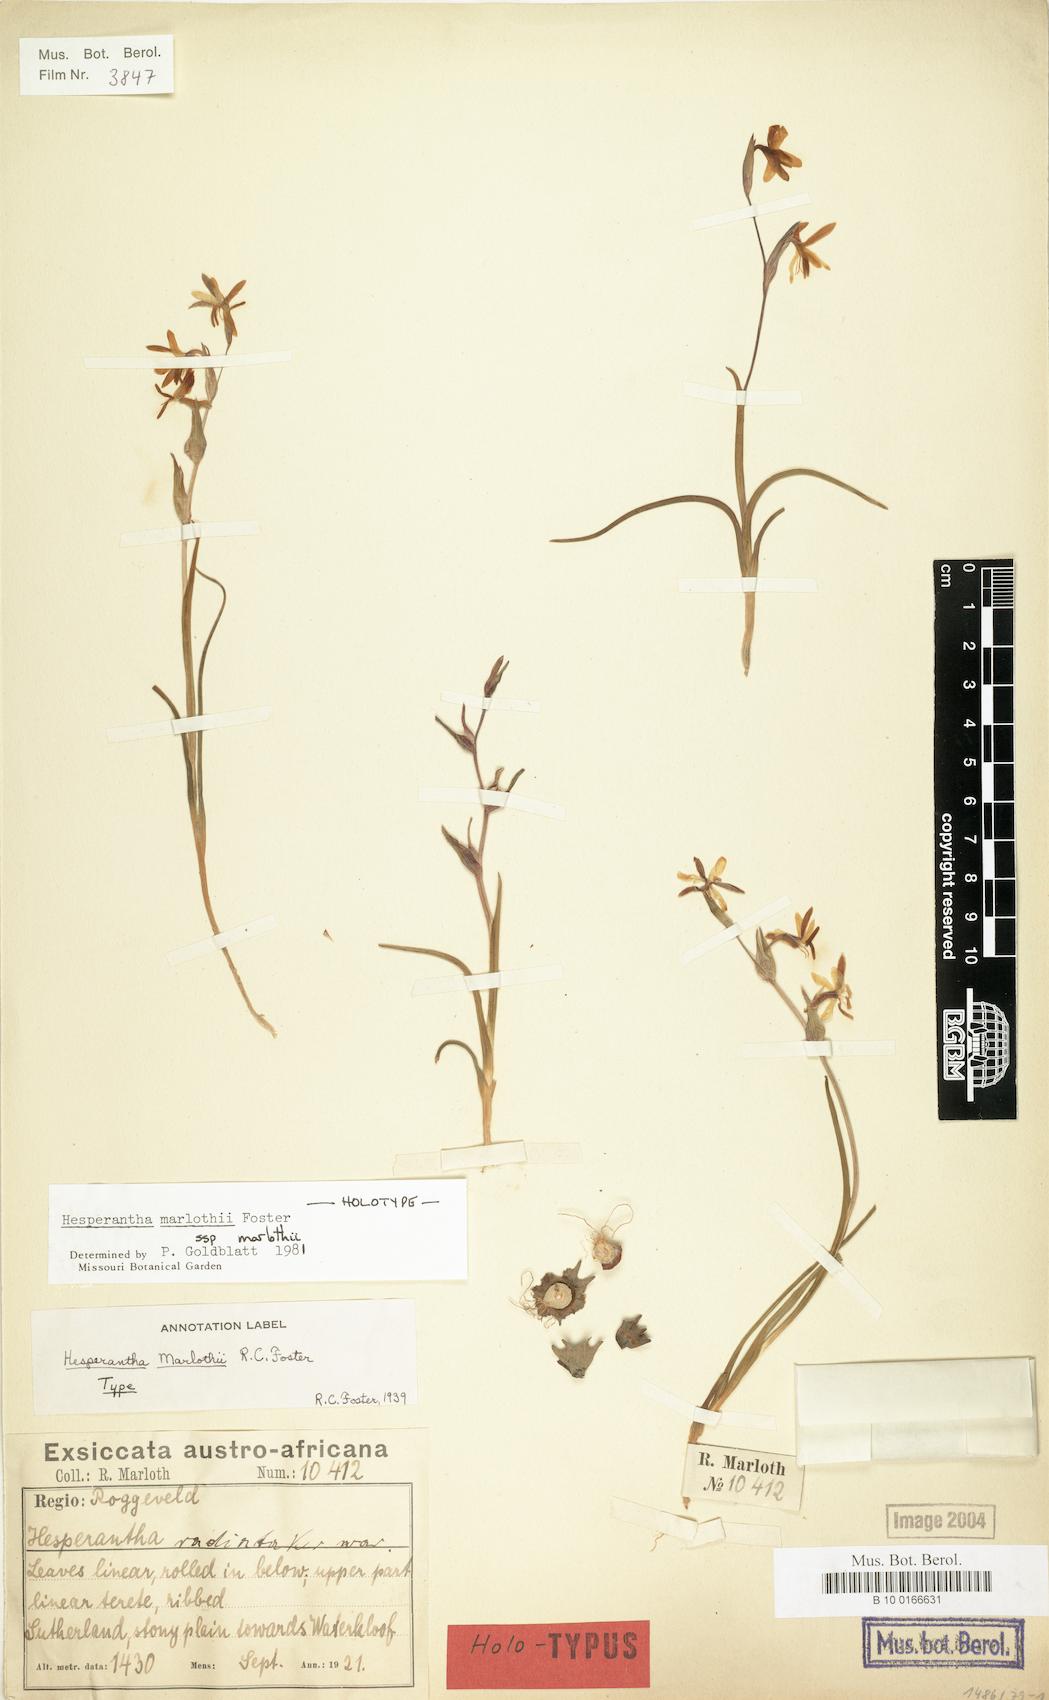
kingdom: Plantae
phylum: Tracheophyta
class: Liliopsida
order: Asparagales
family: Iridaceae
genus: Hesperantha
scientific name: Hesperantha marlothii
